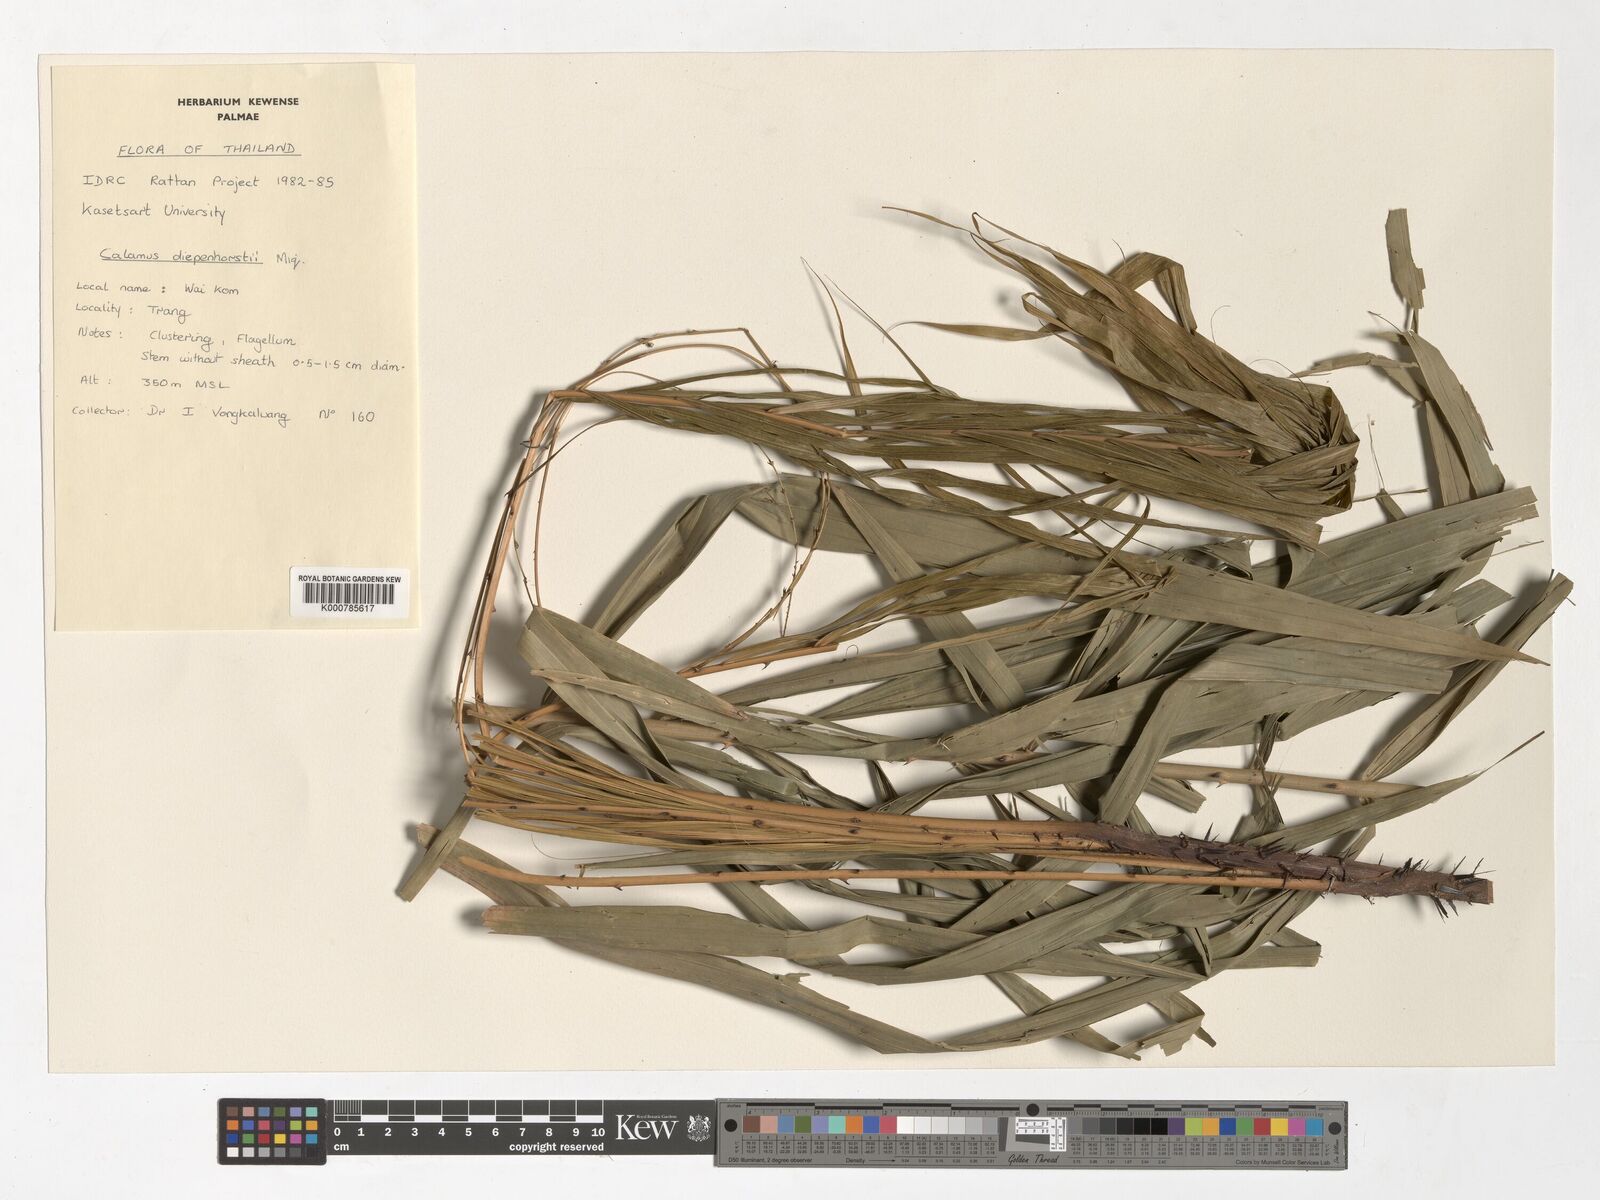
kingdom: Plantae
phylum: Tracheophyta
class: Liliopsida
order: Arecales
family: Arecaceae
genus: Calamus
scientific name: Calamus diepenhorstii
